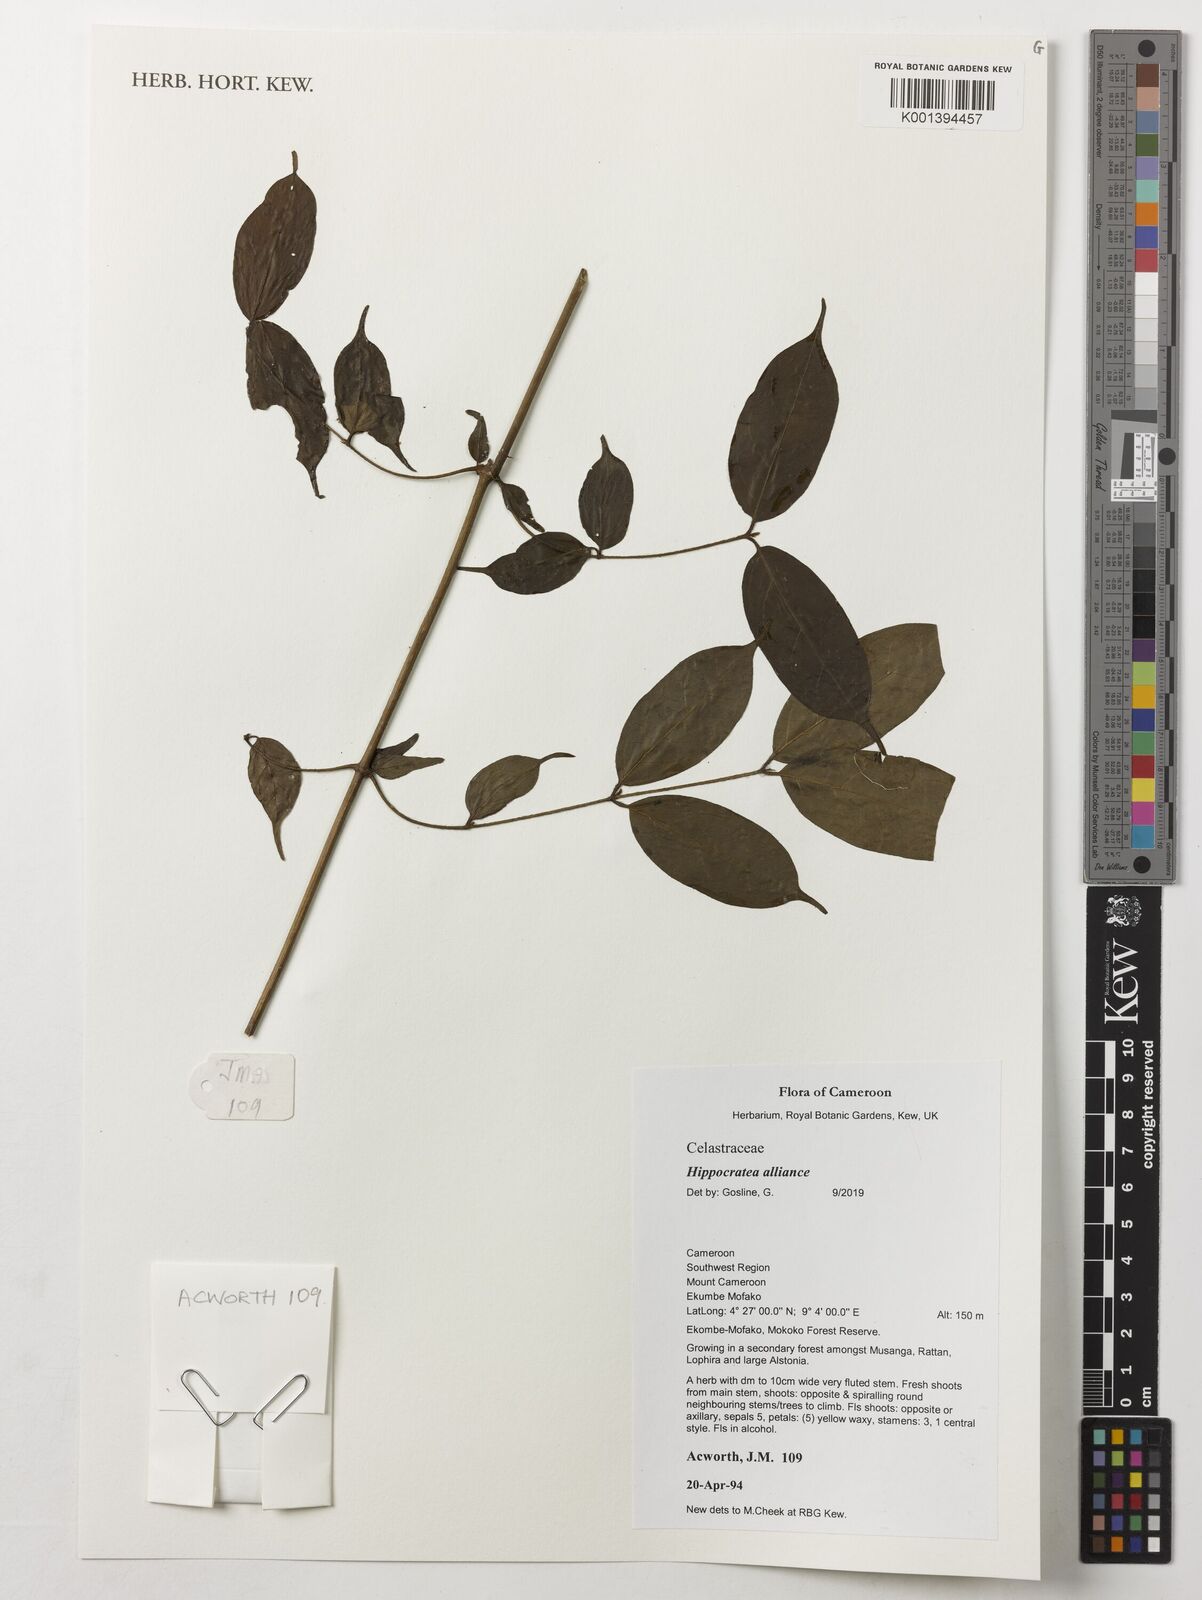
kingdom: Plantae
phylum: Tracheophyta
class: Magnoliopsida
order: Celastrales
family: Celastraceae
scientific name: Celastraceae
